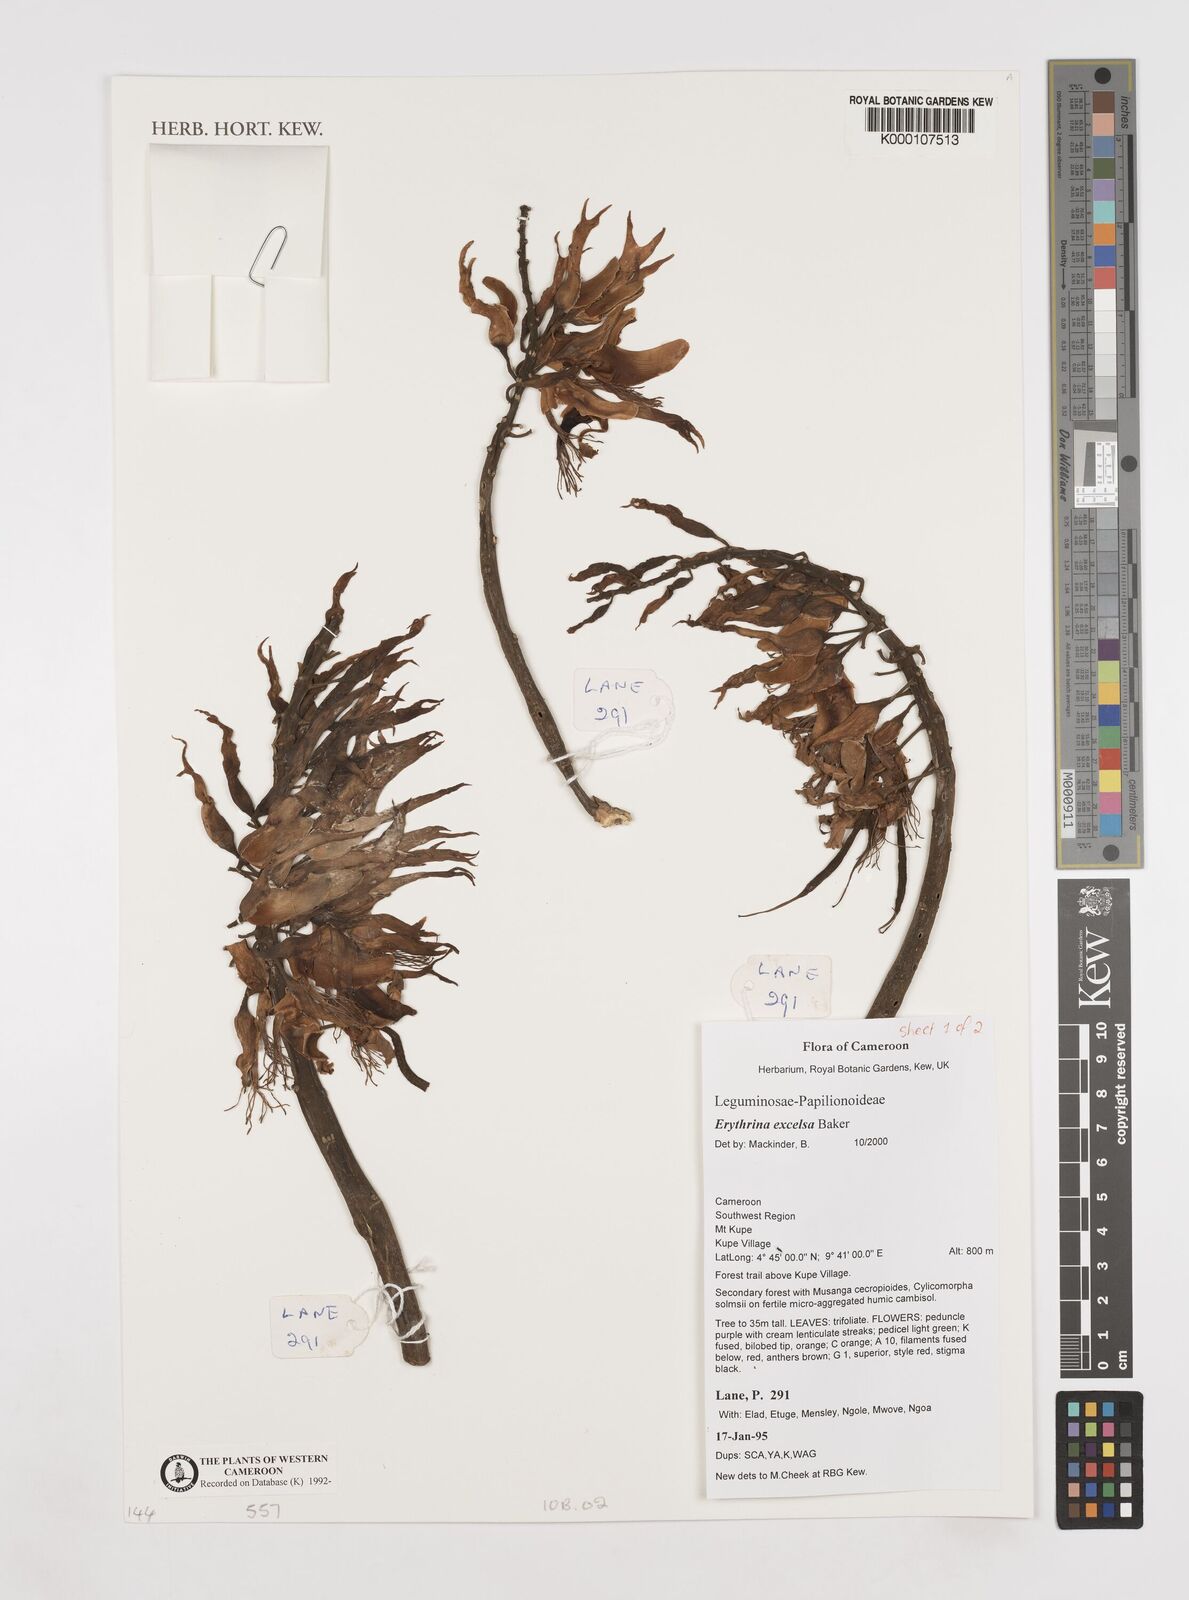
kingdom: Plantae
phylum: Tracheophyta
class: Magnoliopsida
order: Fabales
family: Fabaceae
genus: Erythrina
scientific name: Erythrina excelsa
